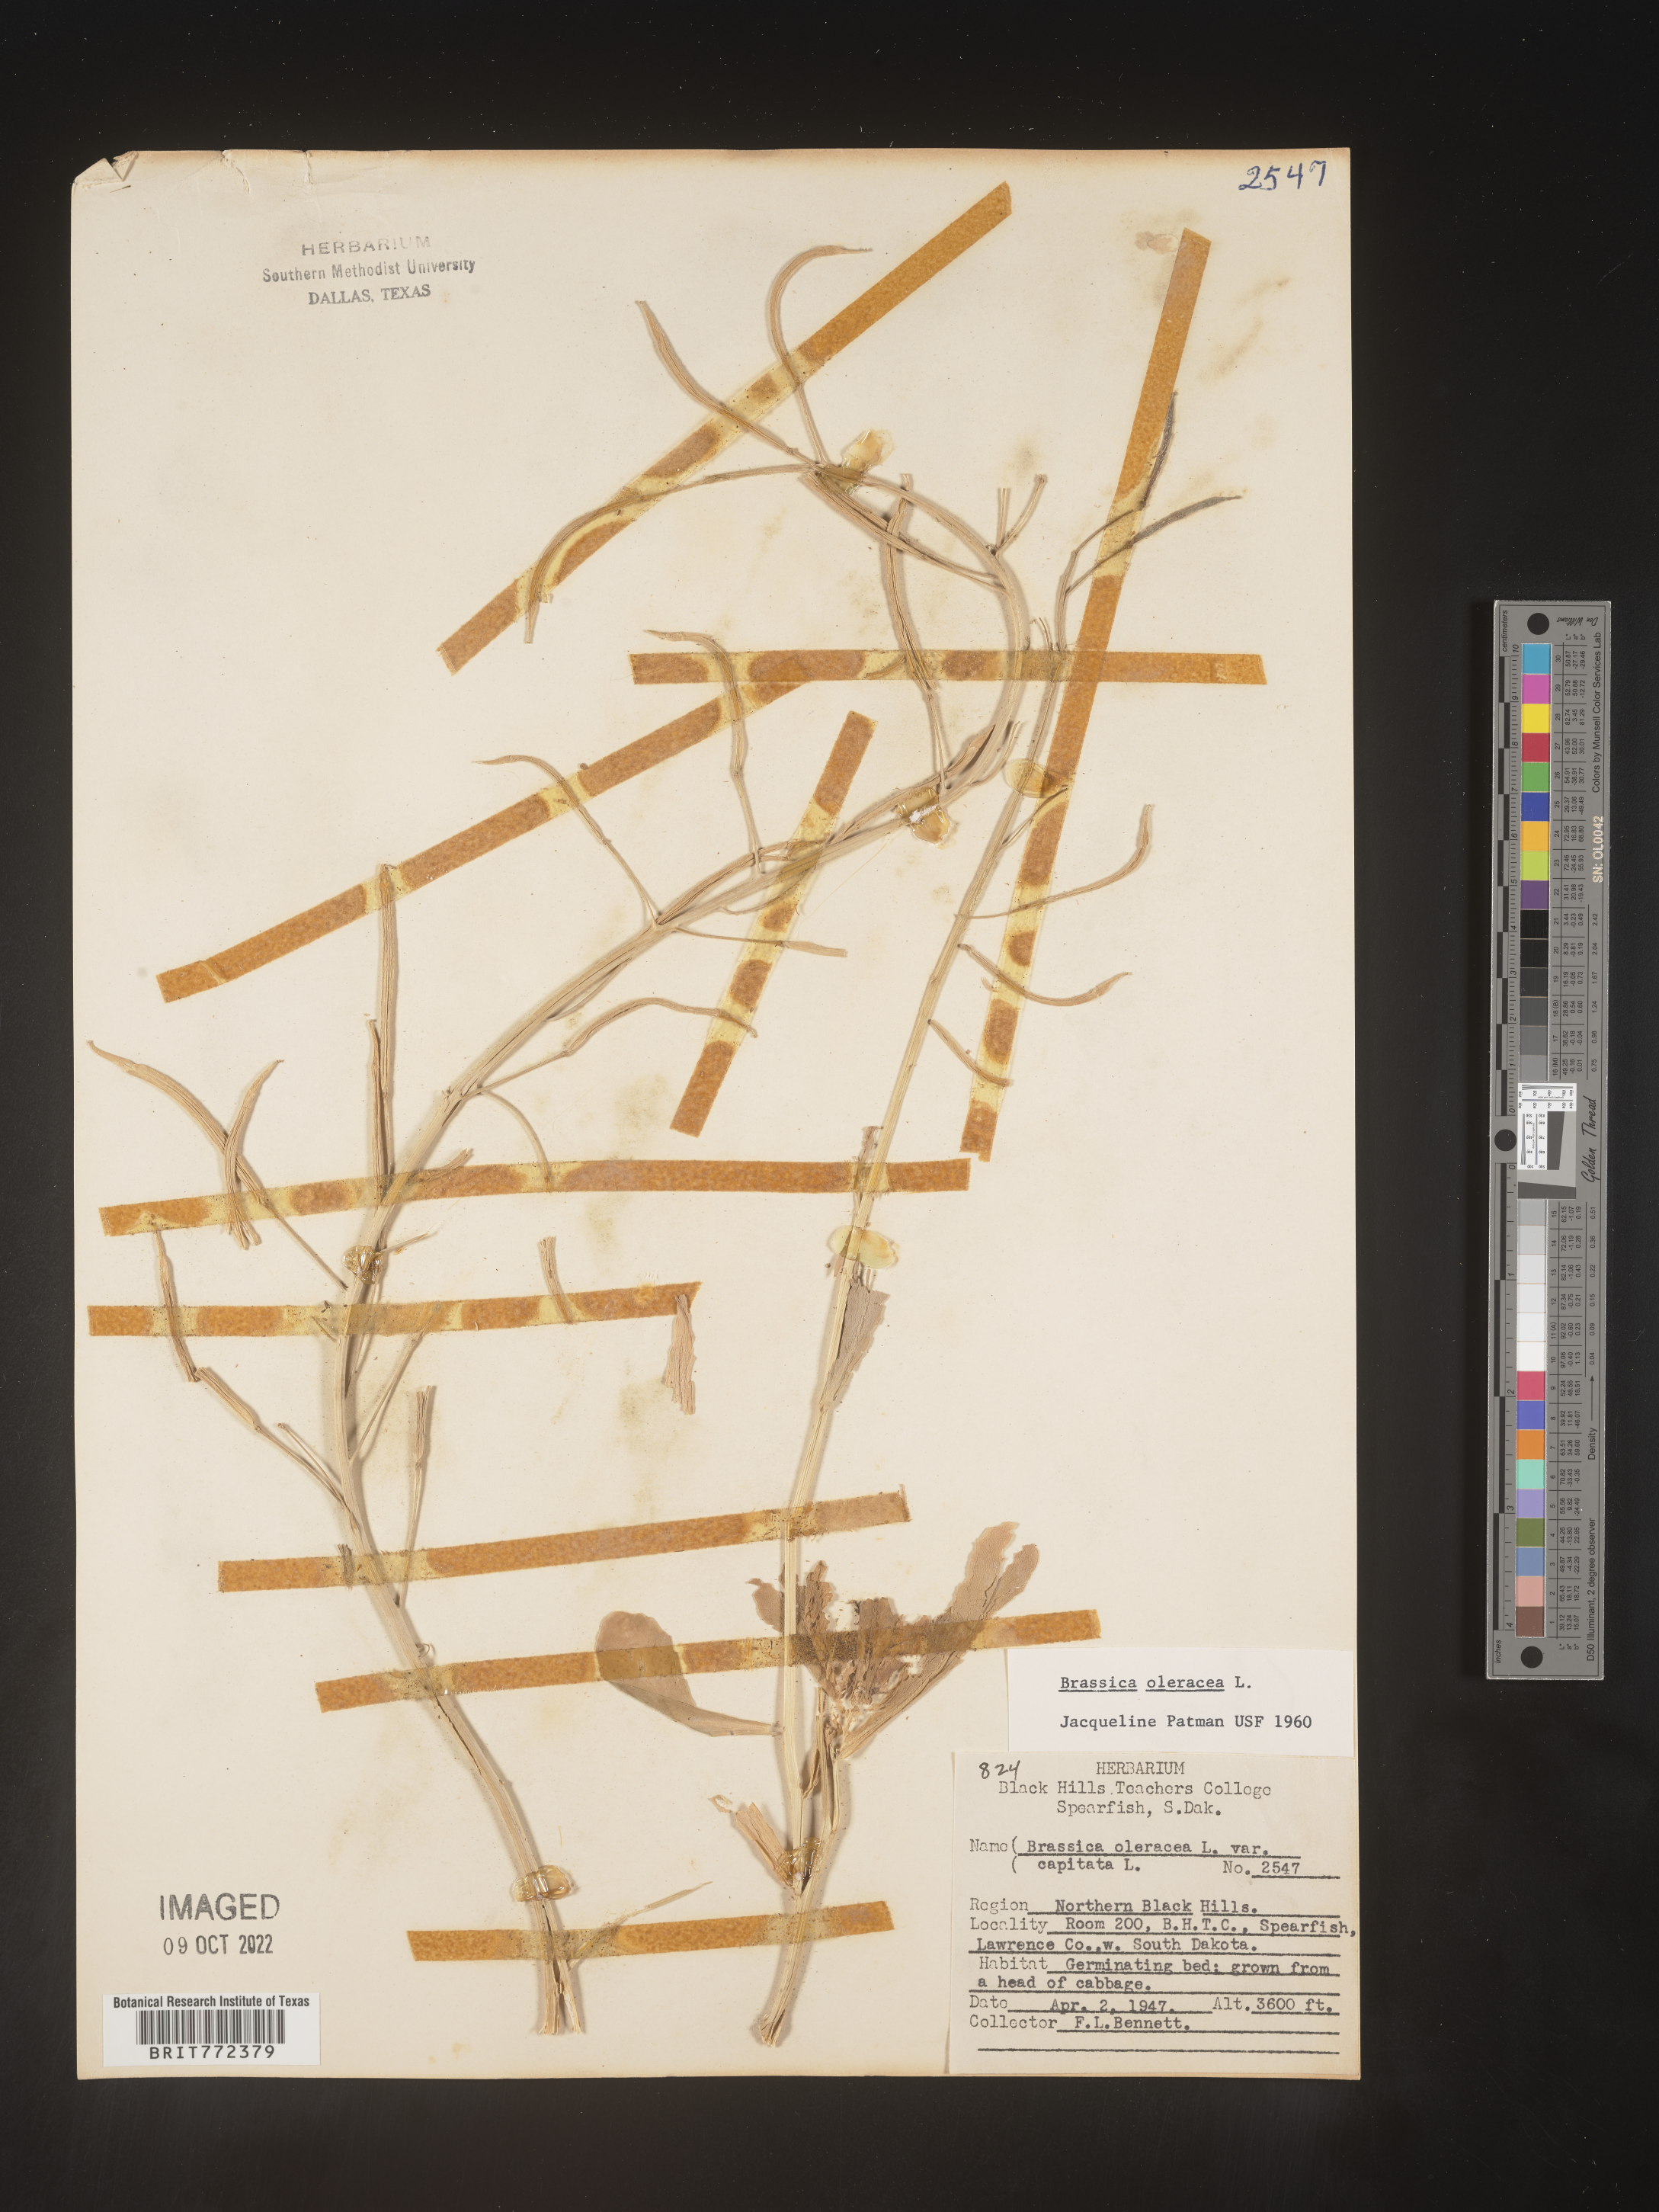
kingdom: Plantae
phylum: Tracheophyta
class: Magnoliopsida
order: Brassicales
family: Brassicaceae
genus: Brassica
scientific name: Brassica
